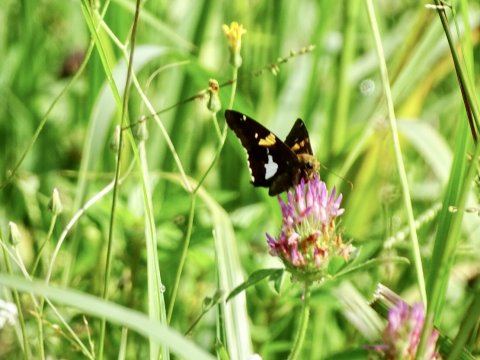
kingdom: Animalia
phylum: Arthropoda
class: Insecta
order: Lepidoptera
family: Hesperiidae
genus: Epargyreus
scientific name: Epargyreus clarus
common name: Silver-spotted Skipper
